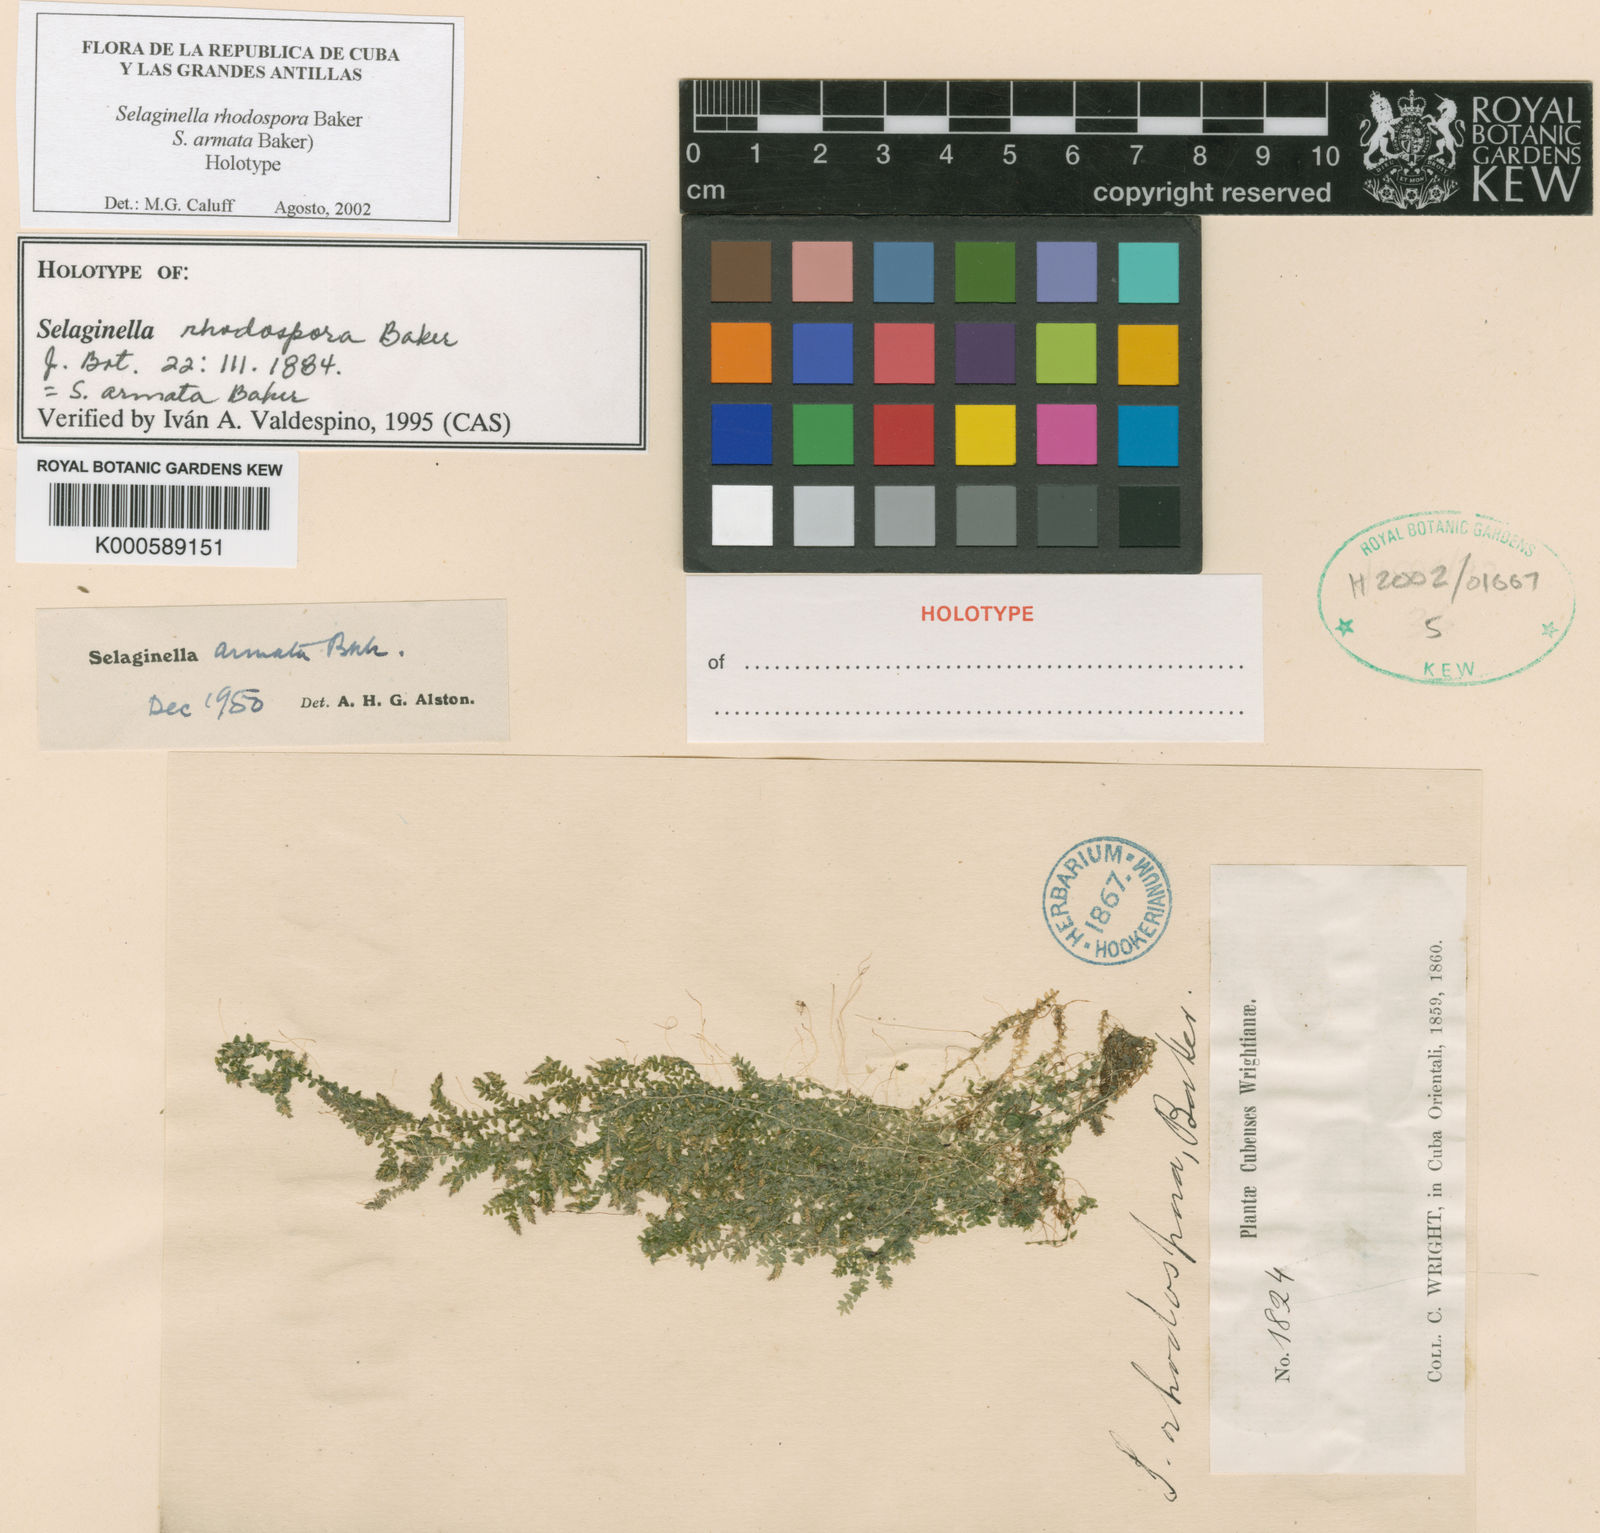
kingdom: Plantae
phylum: Tracheophyta
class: Lycopodiopsida
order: Selaginellales
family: Selaginellaceae
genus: Selaginella
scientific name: Selaginella armata
